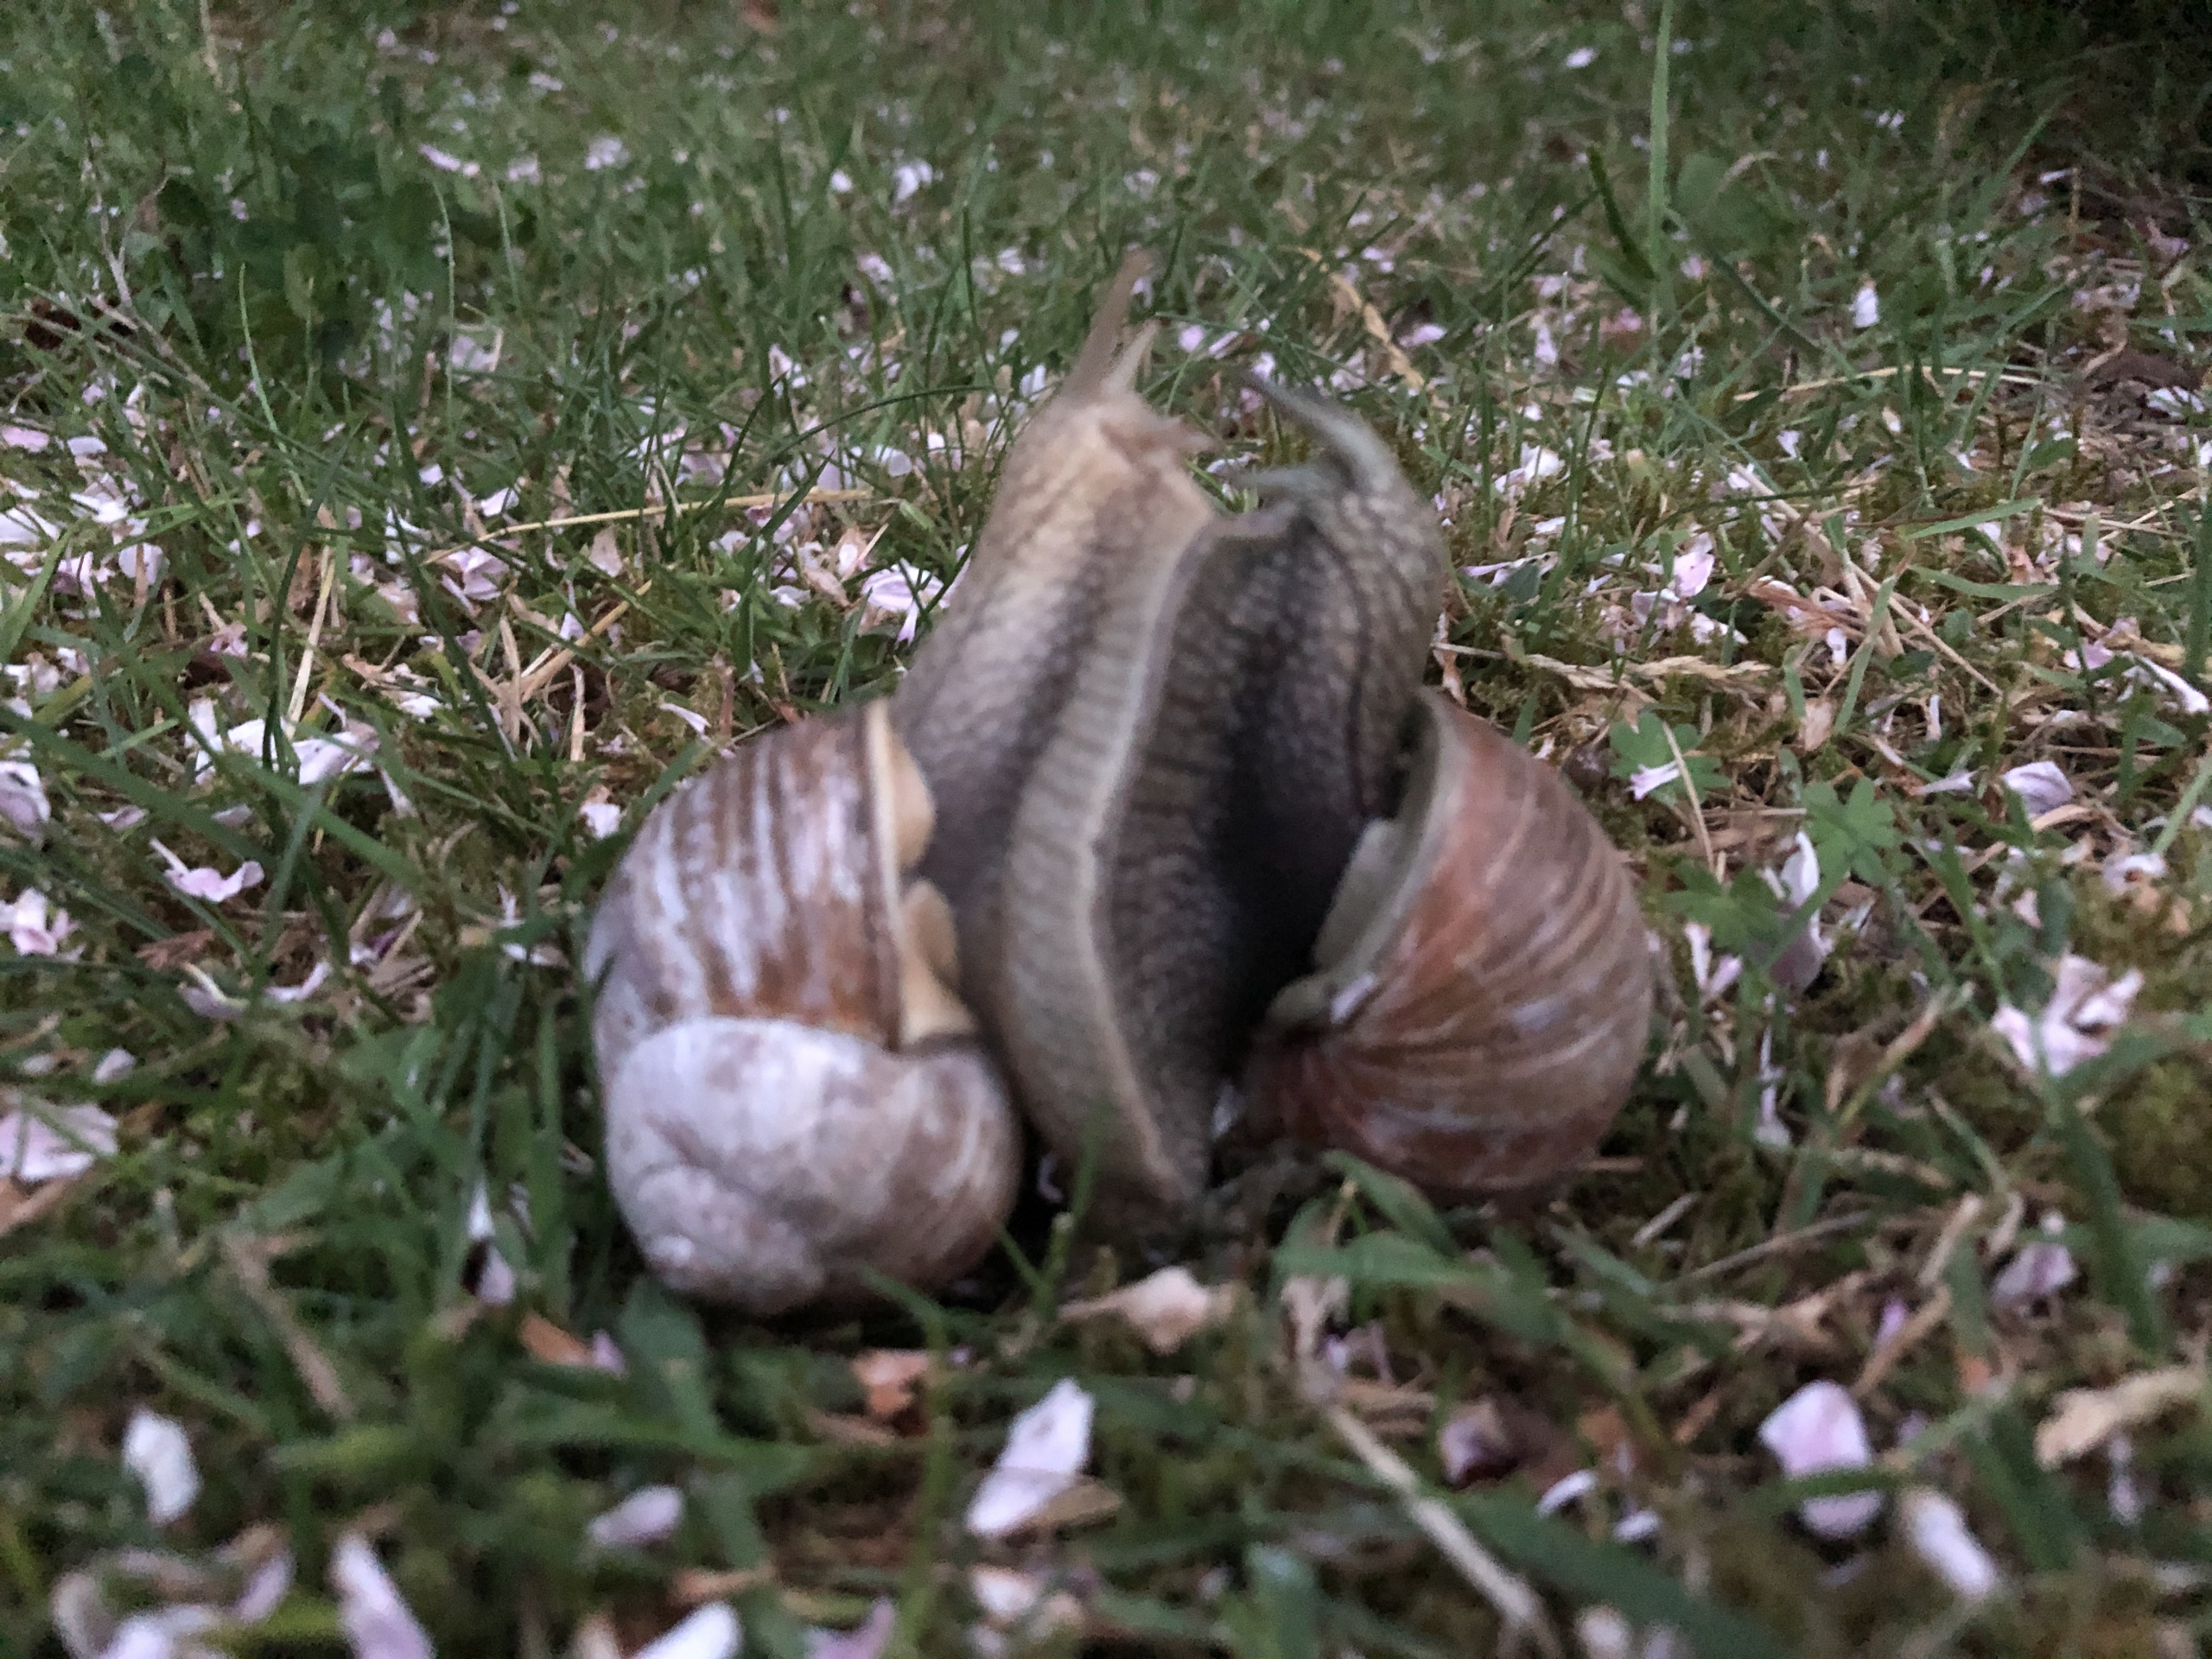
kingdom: Animalia
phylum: Mollusca
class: Gastropoda
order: Stylommatophora
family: Helicidae
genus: Helix
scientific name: Helix pomatia
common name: Vinbjergsnegl
